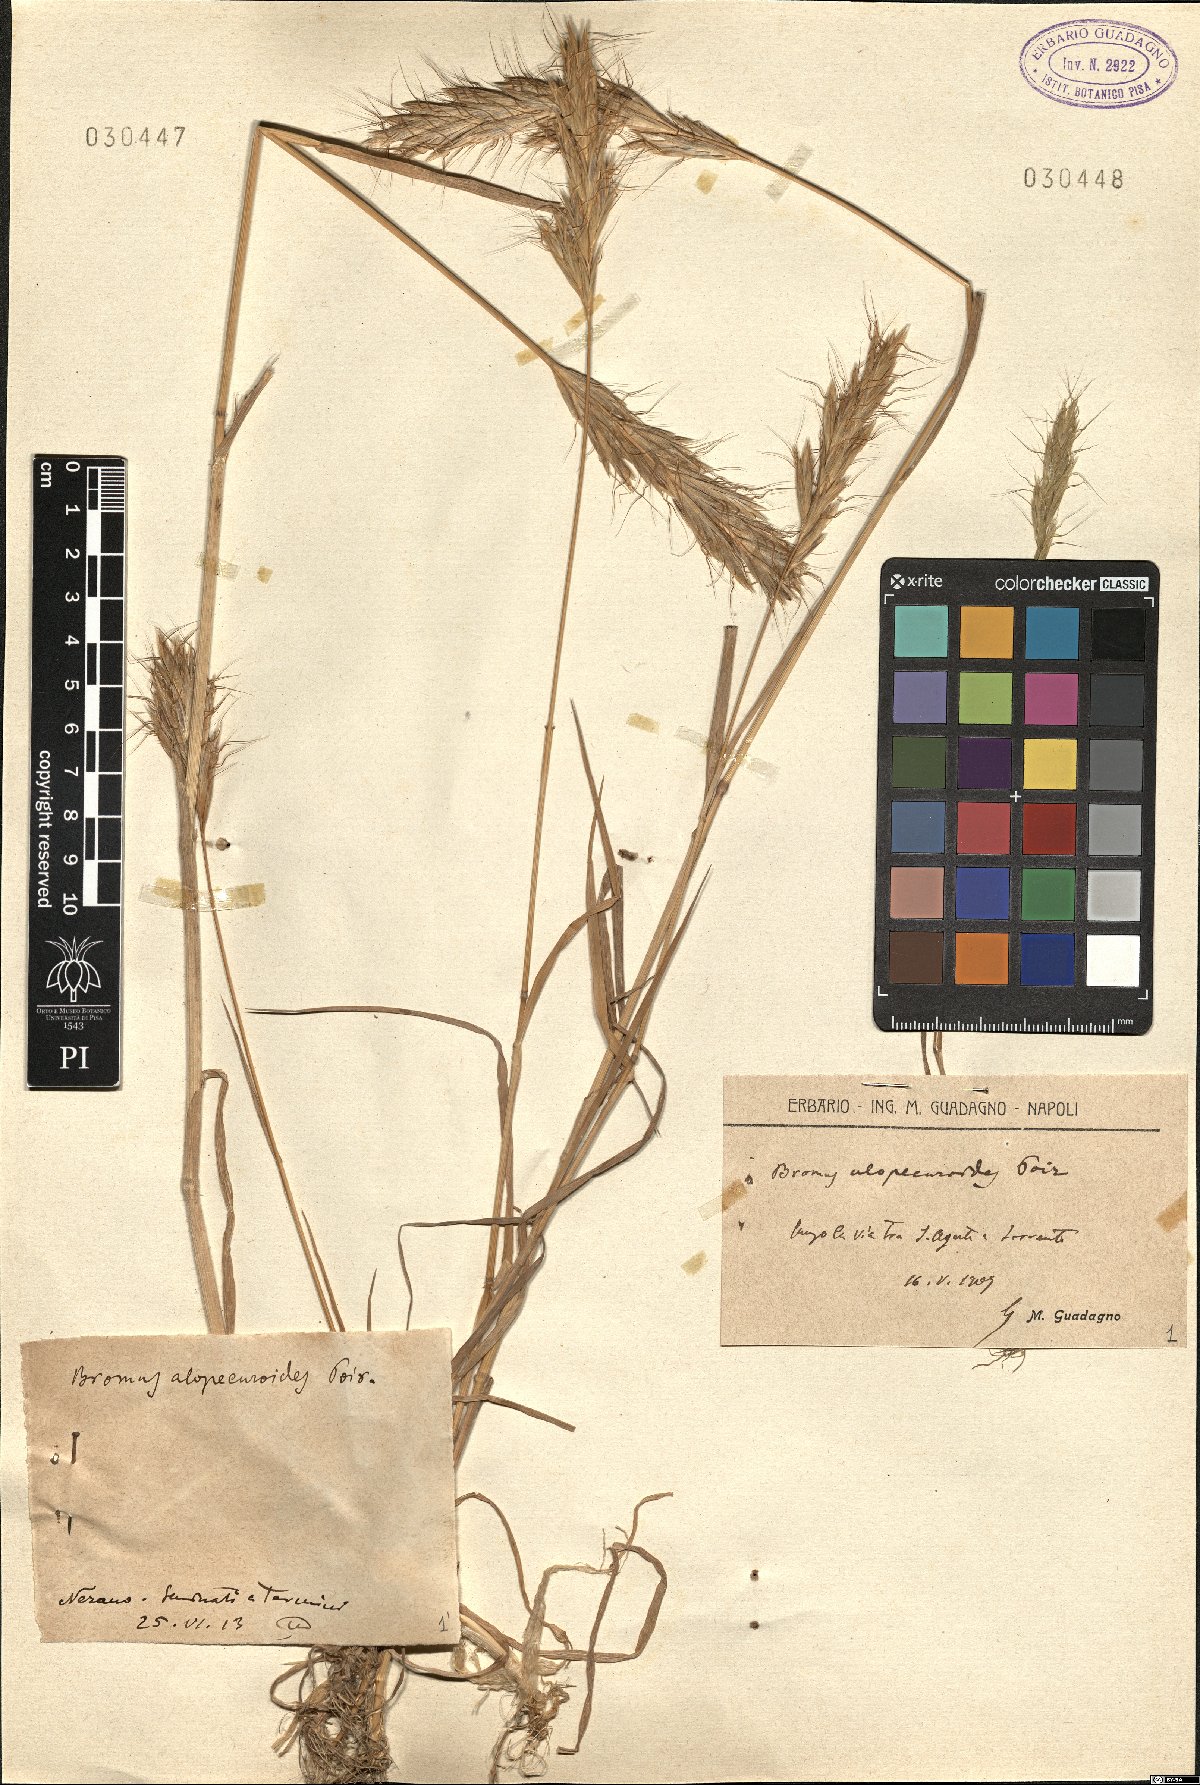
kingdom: Plantae
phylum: Tracheophyta
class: Liliopsida
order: Poales
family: Poaceae
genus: Bromus
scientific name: Bromus alopecuros
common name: Weedy brome
